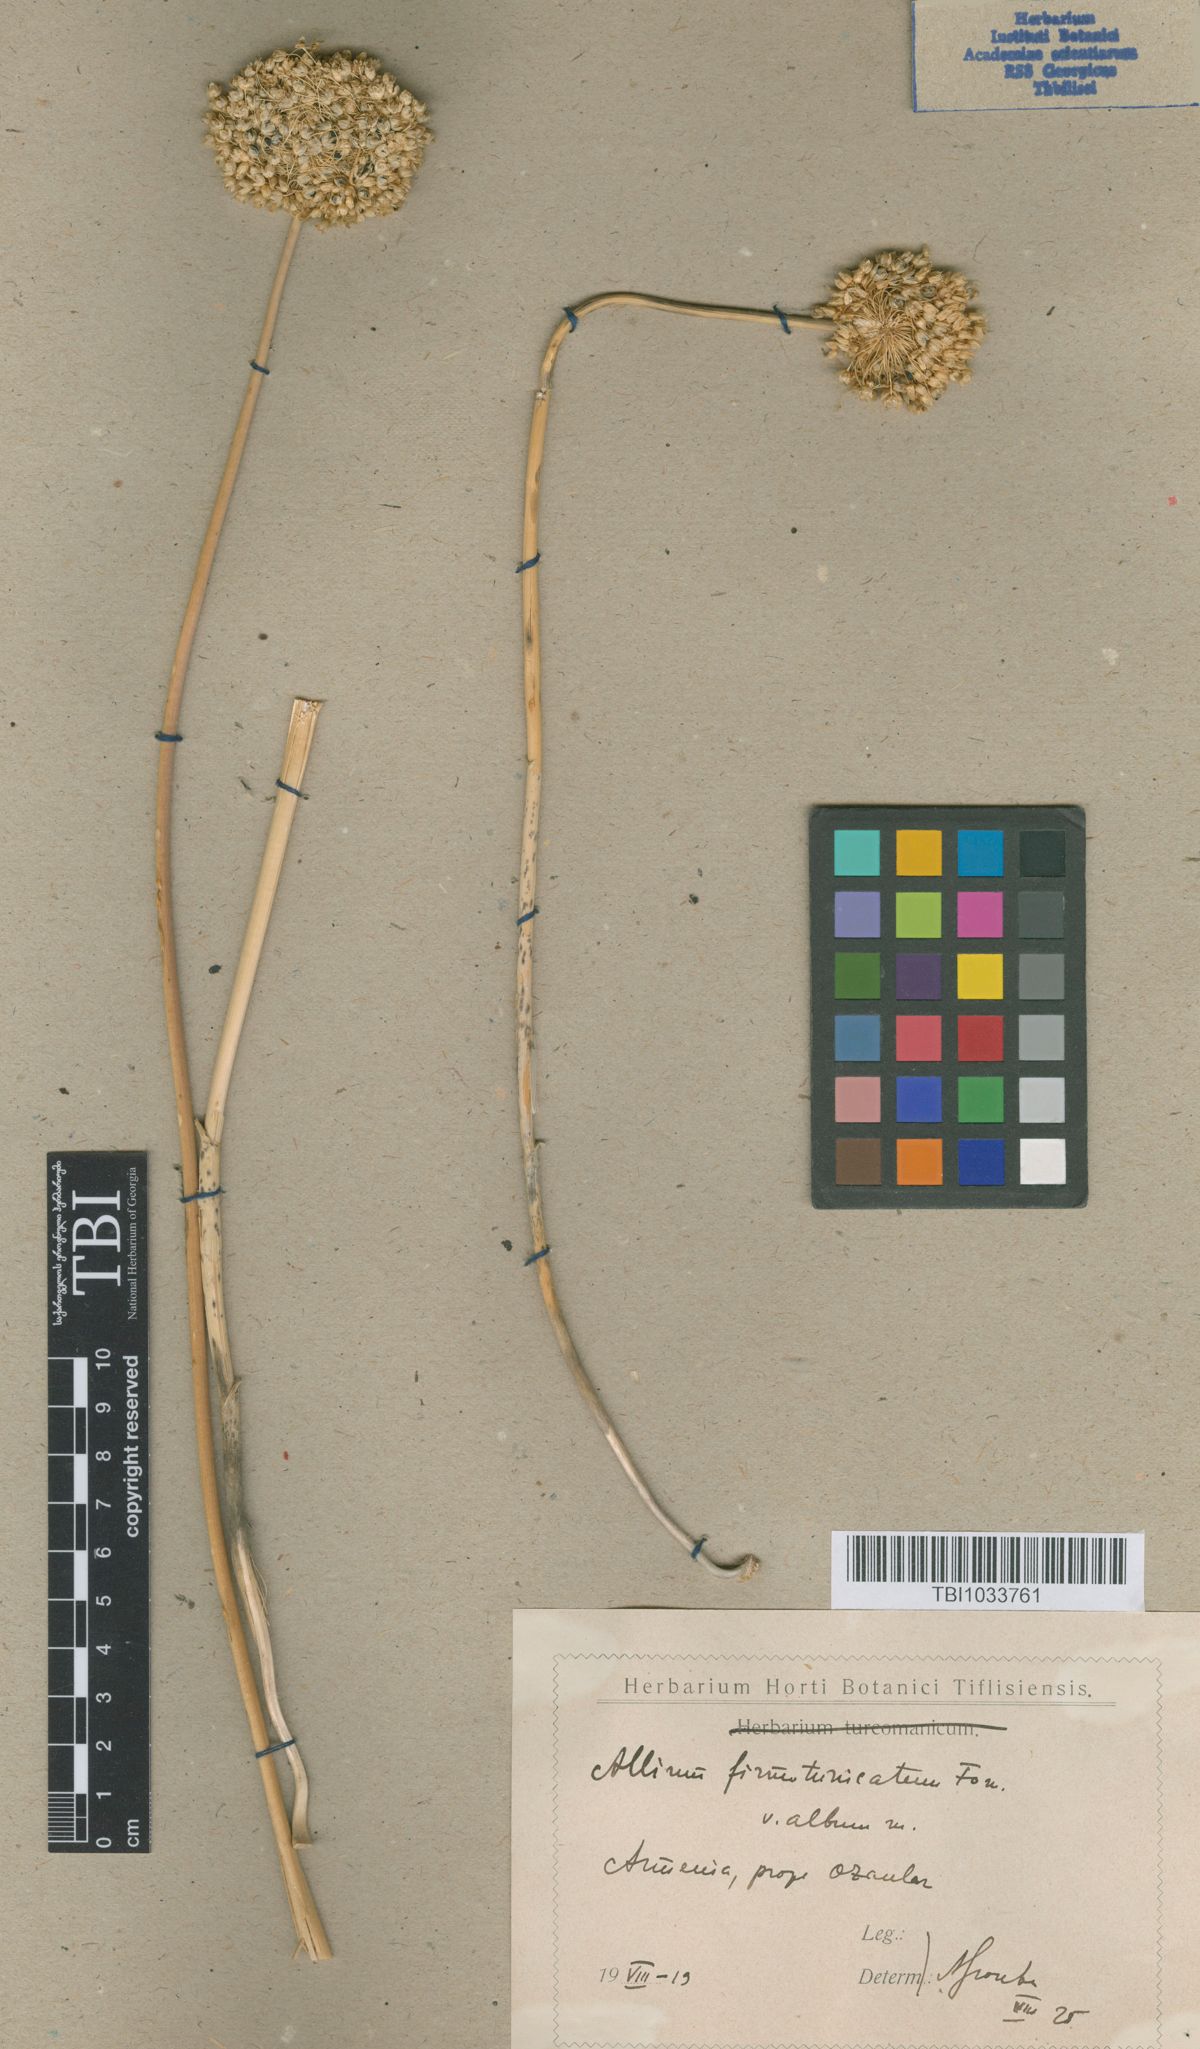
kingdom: Plantae
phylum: Tracheophyta
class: Liliopsida
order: Asparagales
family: Amaryllidaceae
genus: Allium
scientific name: Allium ampeloprasum
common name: Wild leek
